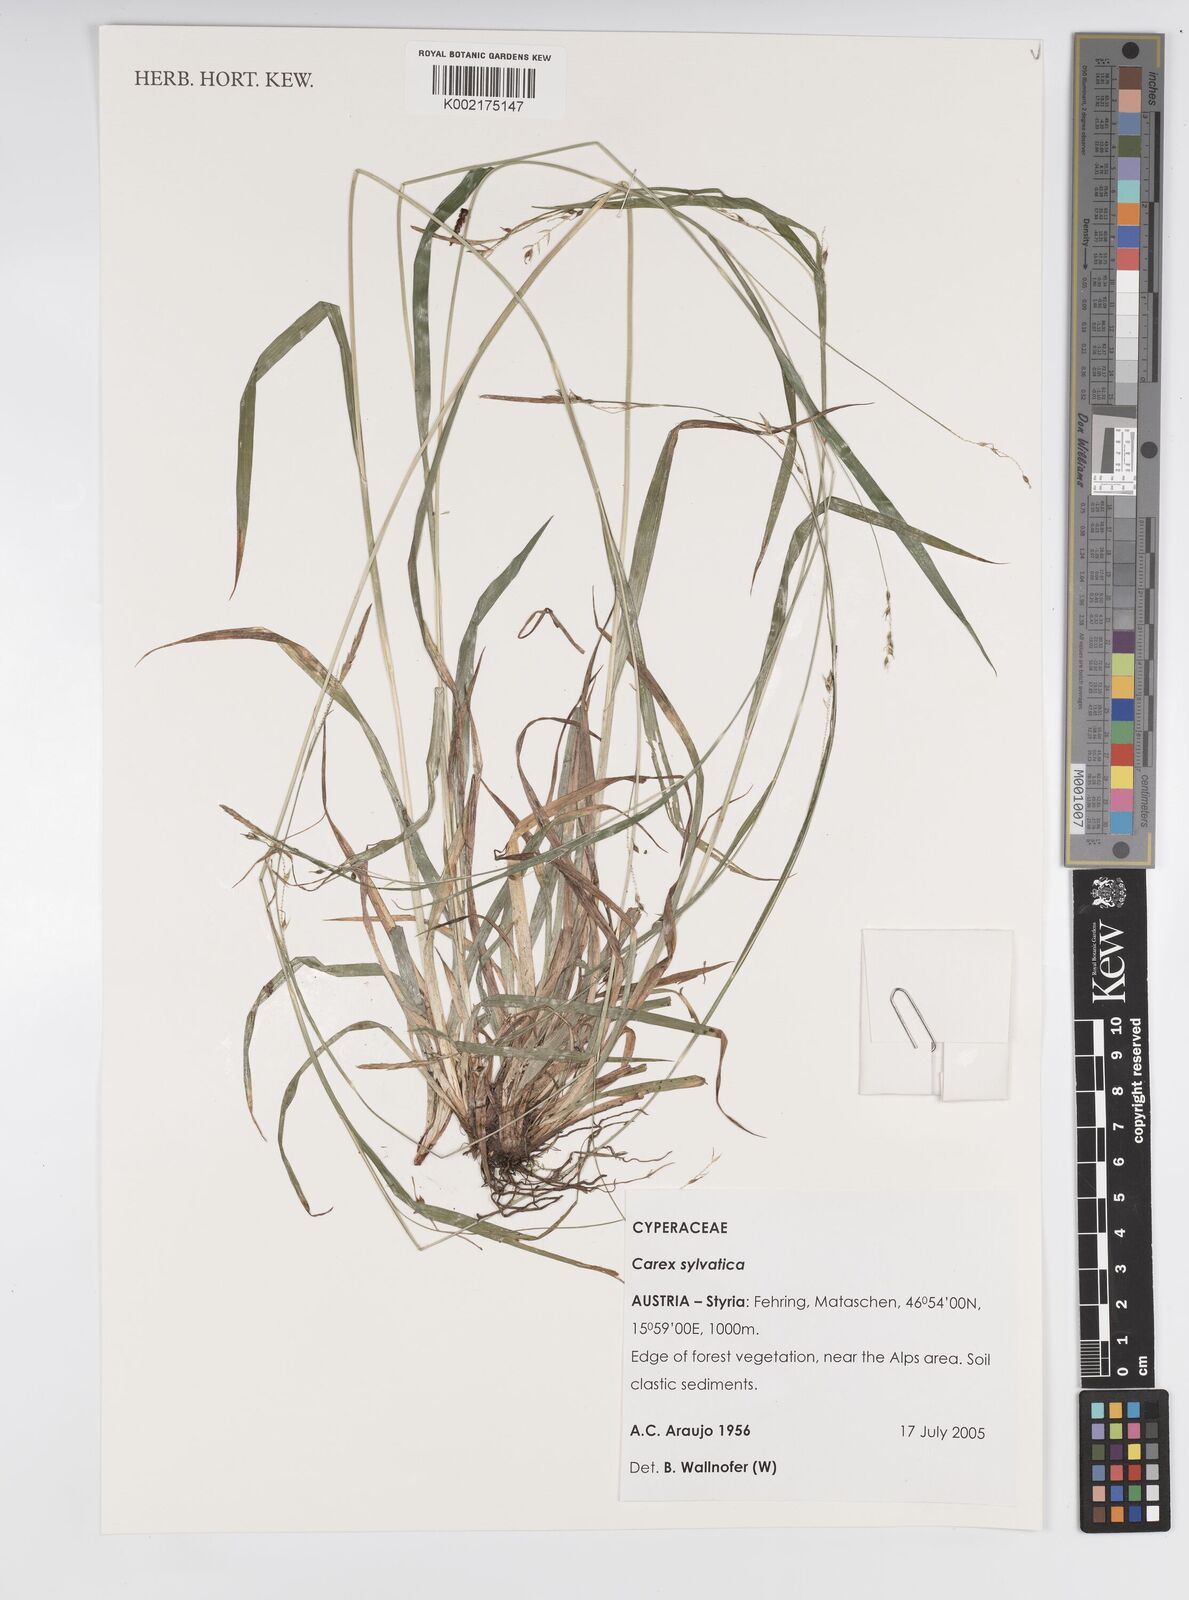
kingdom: Plantae
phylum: Tracheophyta
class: Liliopsida
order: Poales
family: Cyperaceae
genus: Carex
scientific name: Carex sylvatica
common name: Wood-sedge
